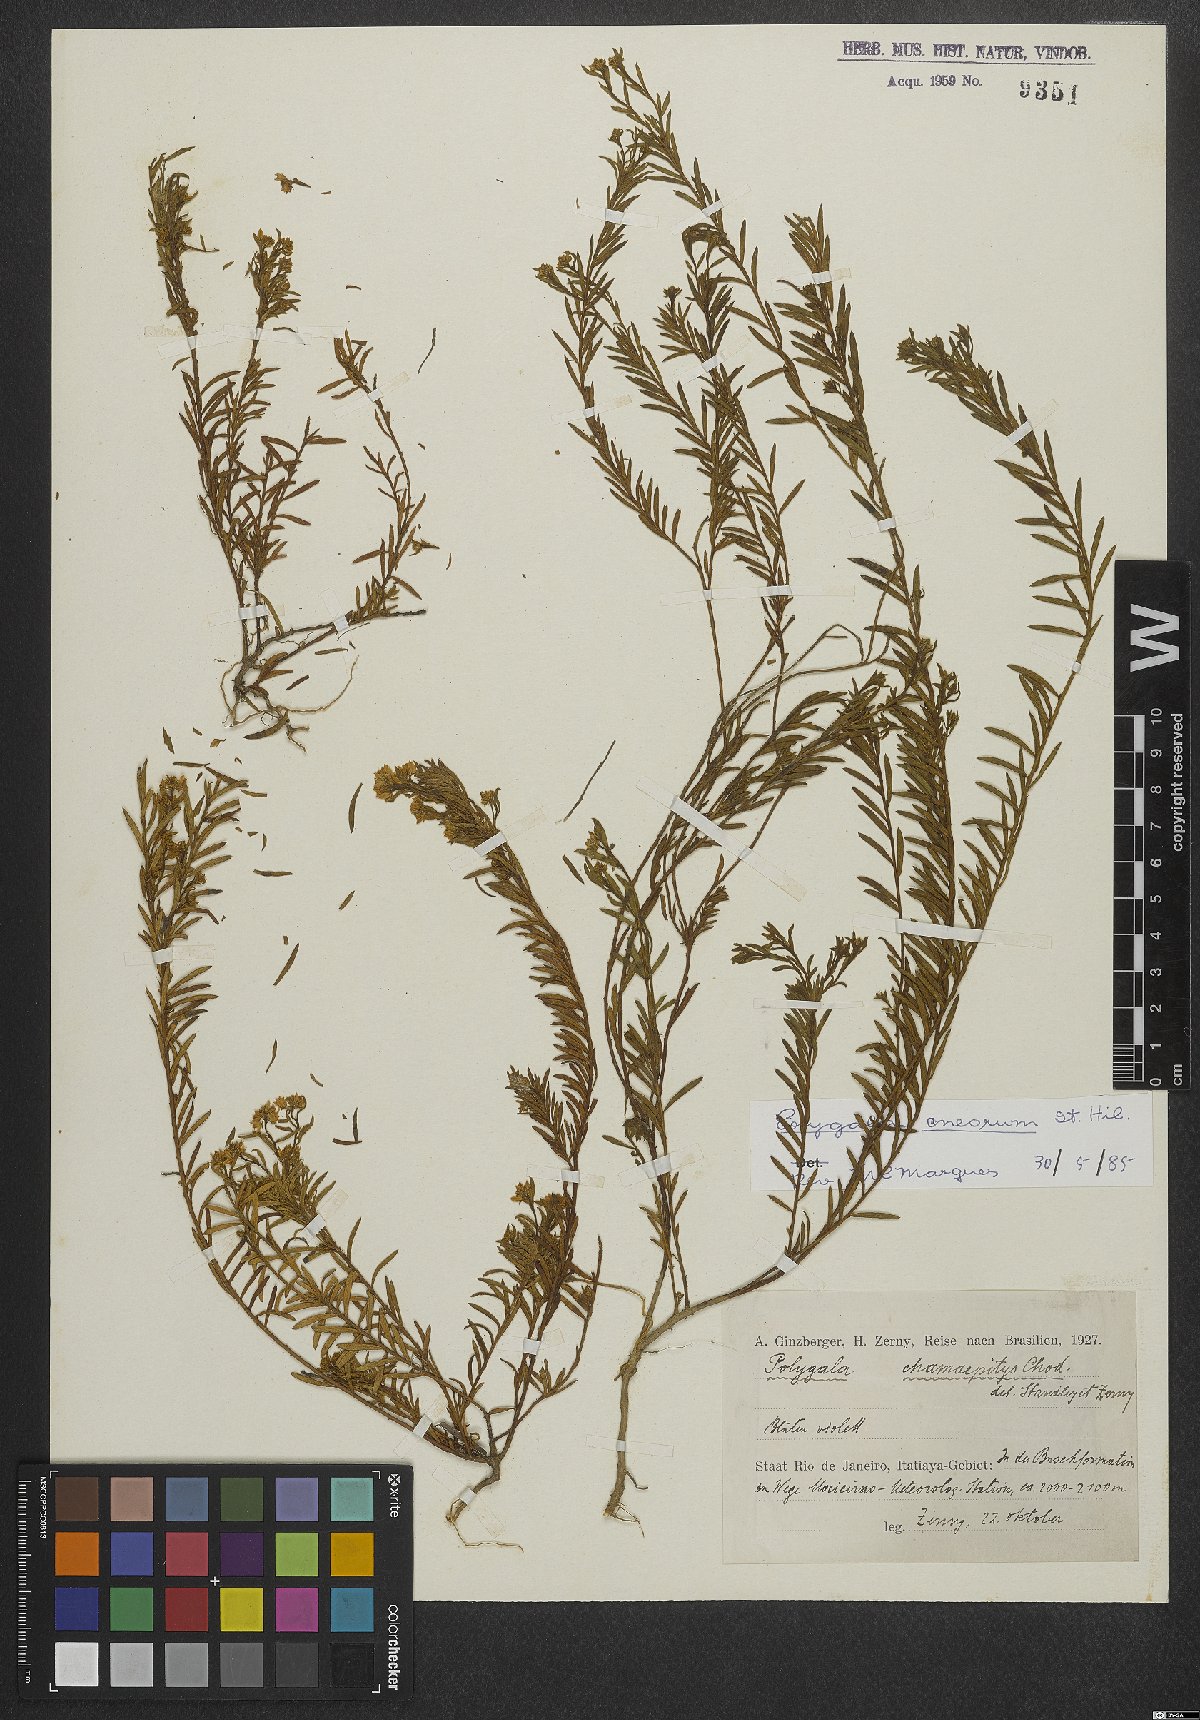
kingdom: Plantae
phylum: Tracheophyta
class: Magnoliopsida
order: Fabales
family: Polygalaceae
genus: Polygala
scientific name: Polygala cneorum
